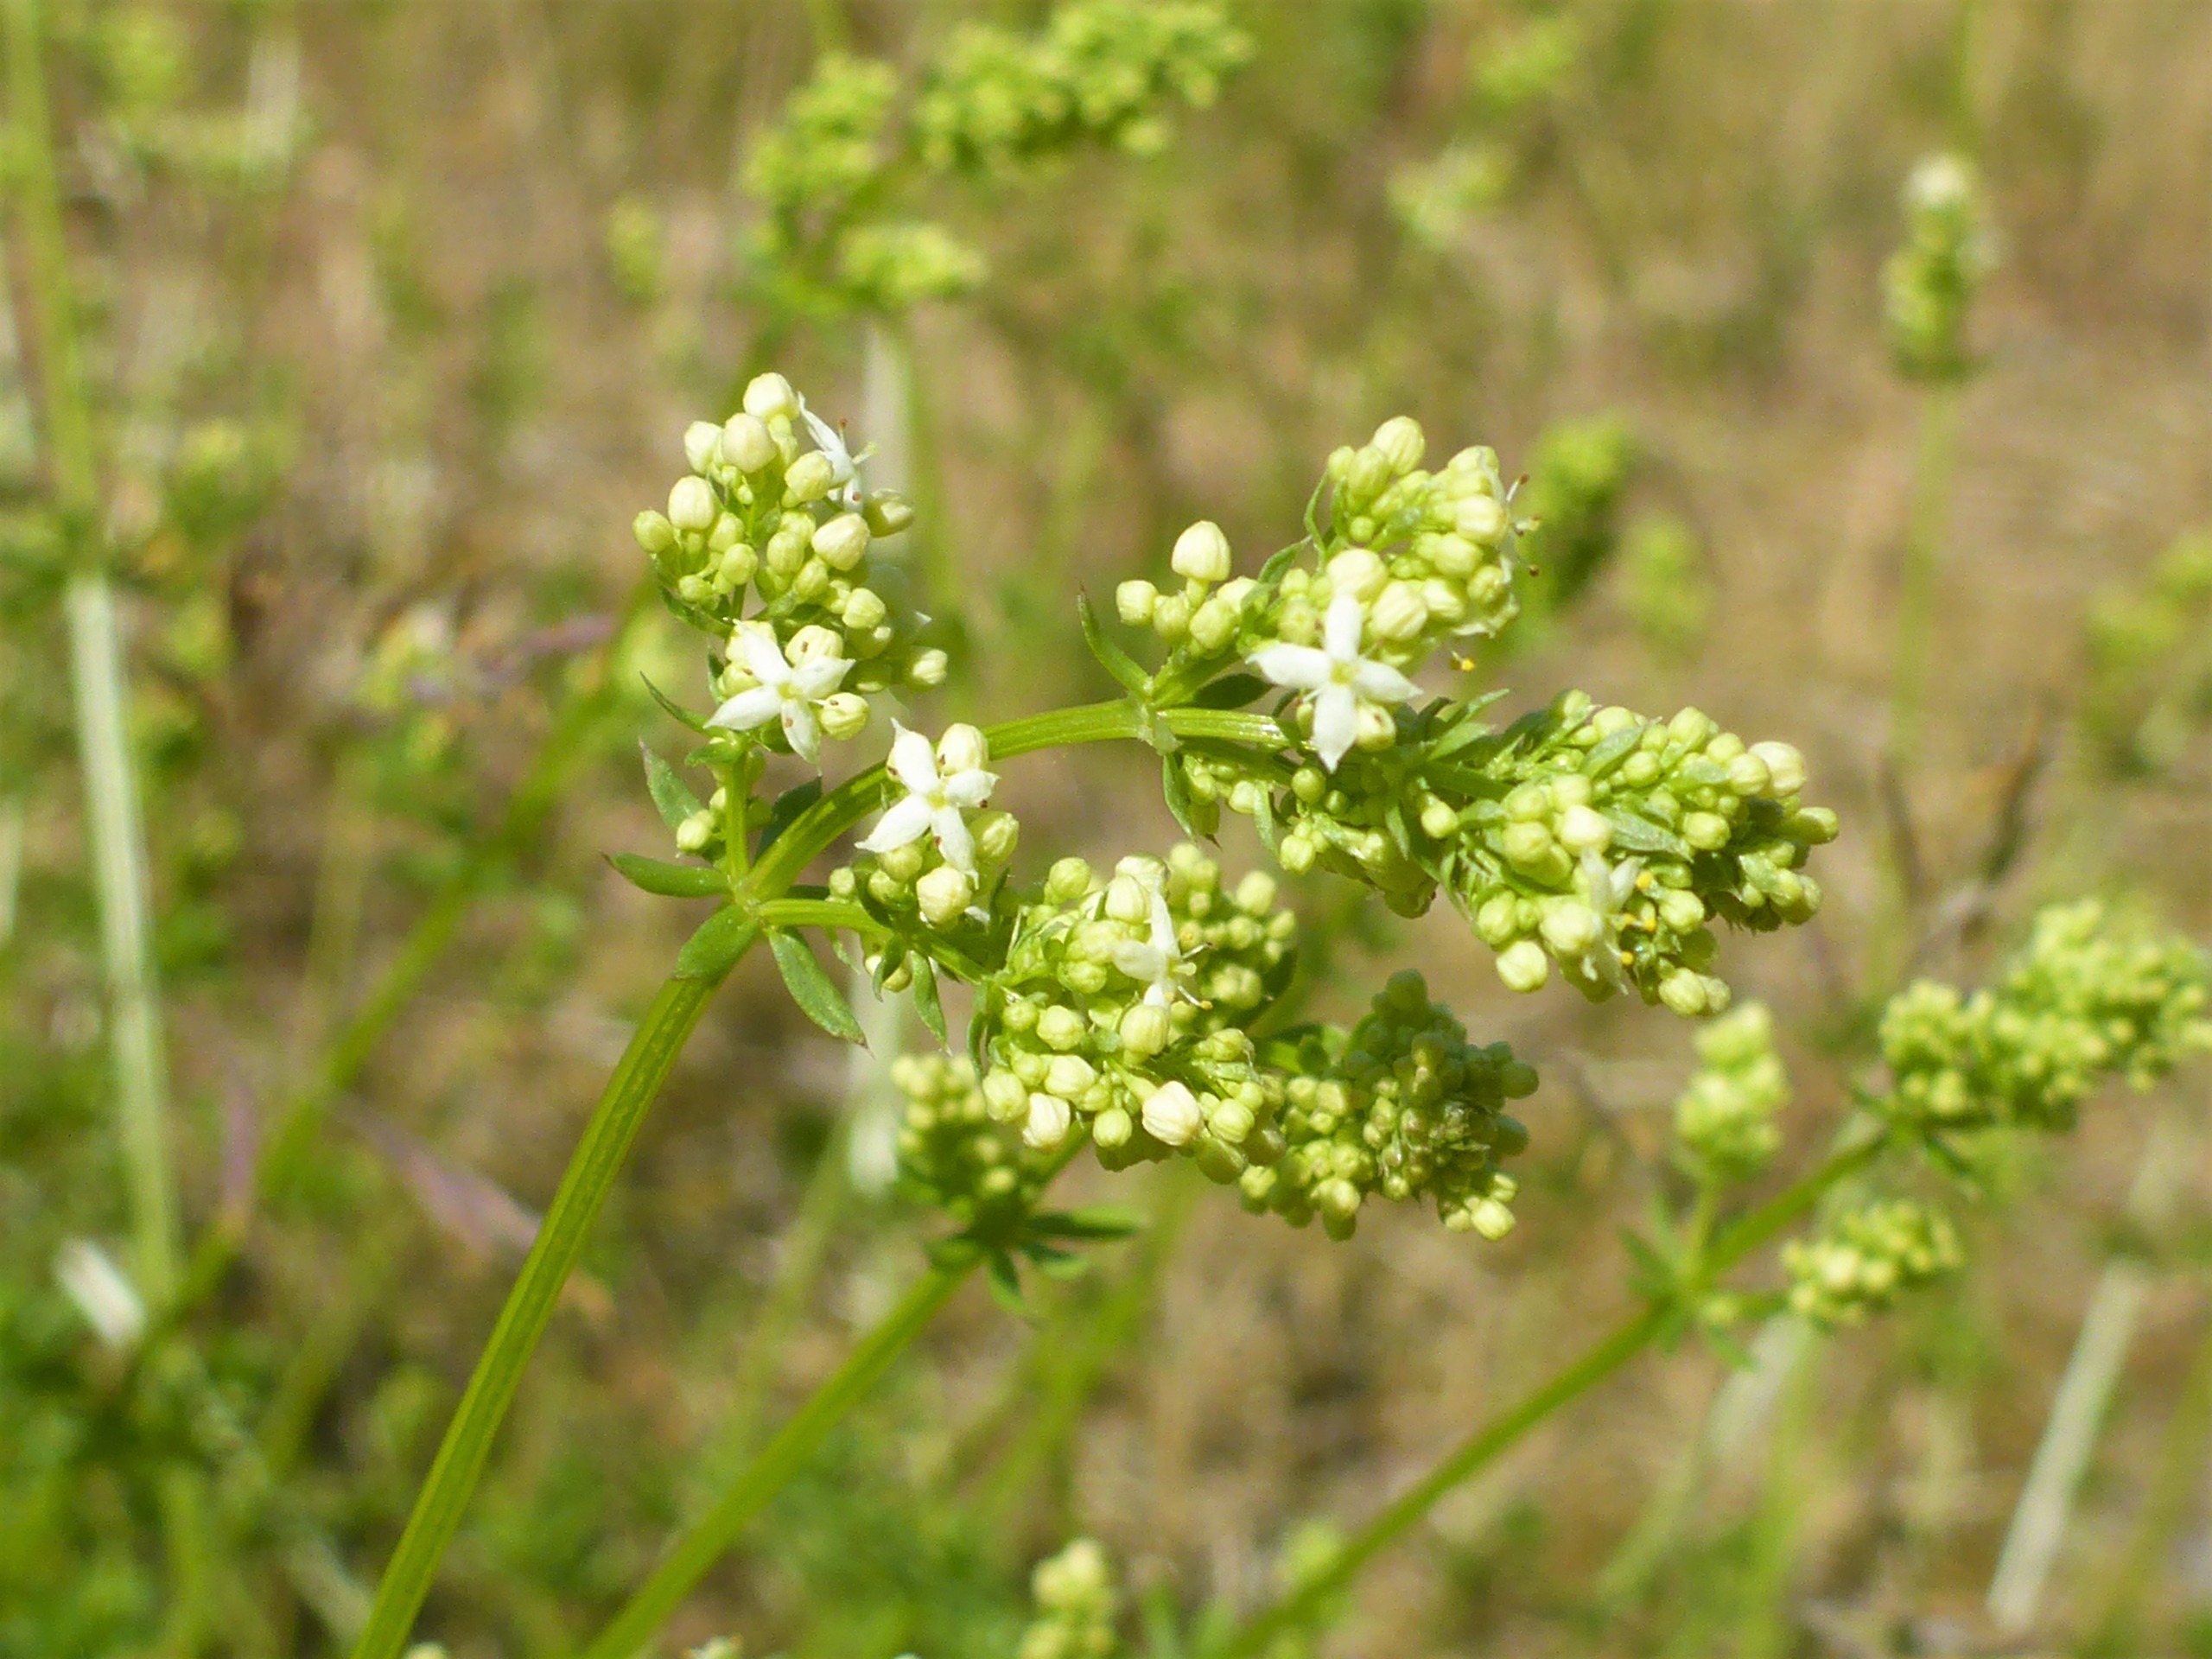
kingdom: Plantae
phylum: Tracheophyta
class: Magnoliopsida
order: Gentianales
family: Rubiaceae
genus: Galium
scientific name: Galium mollugo
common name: Hvid snerre
